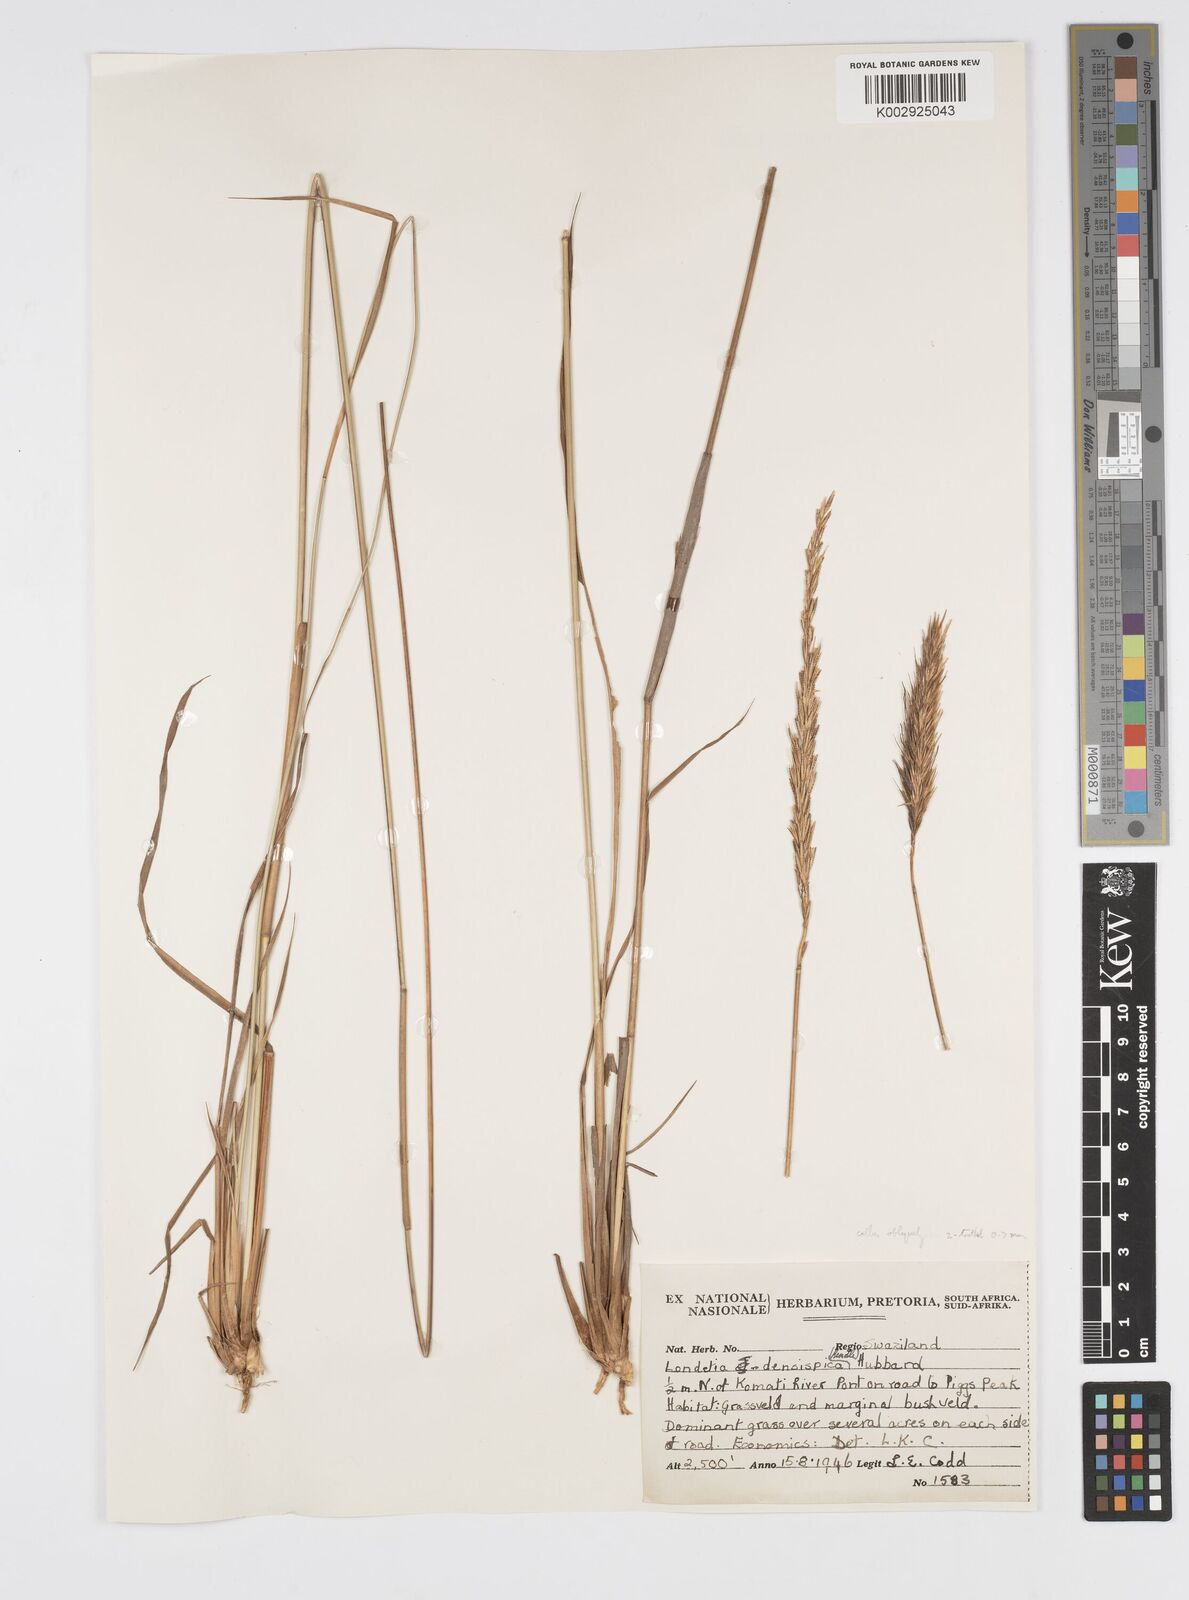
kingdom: Plantae
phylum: Tracheophyta
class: Liliopsida
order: Poales
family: Poaceae
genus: Loudetia
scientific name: Loudetia densispica
